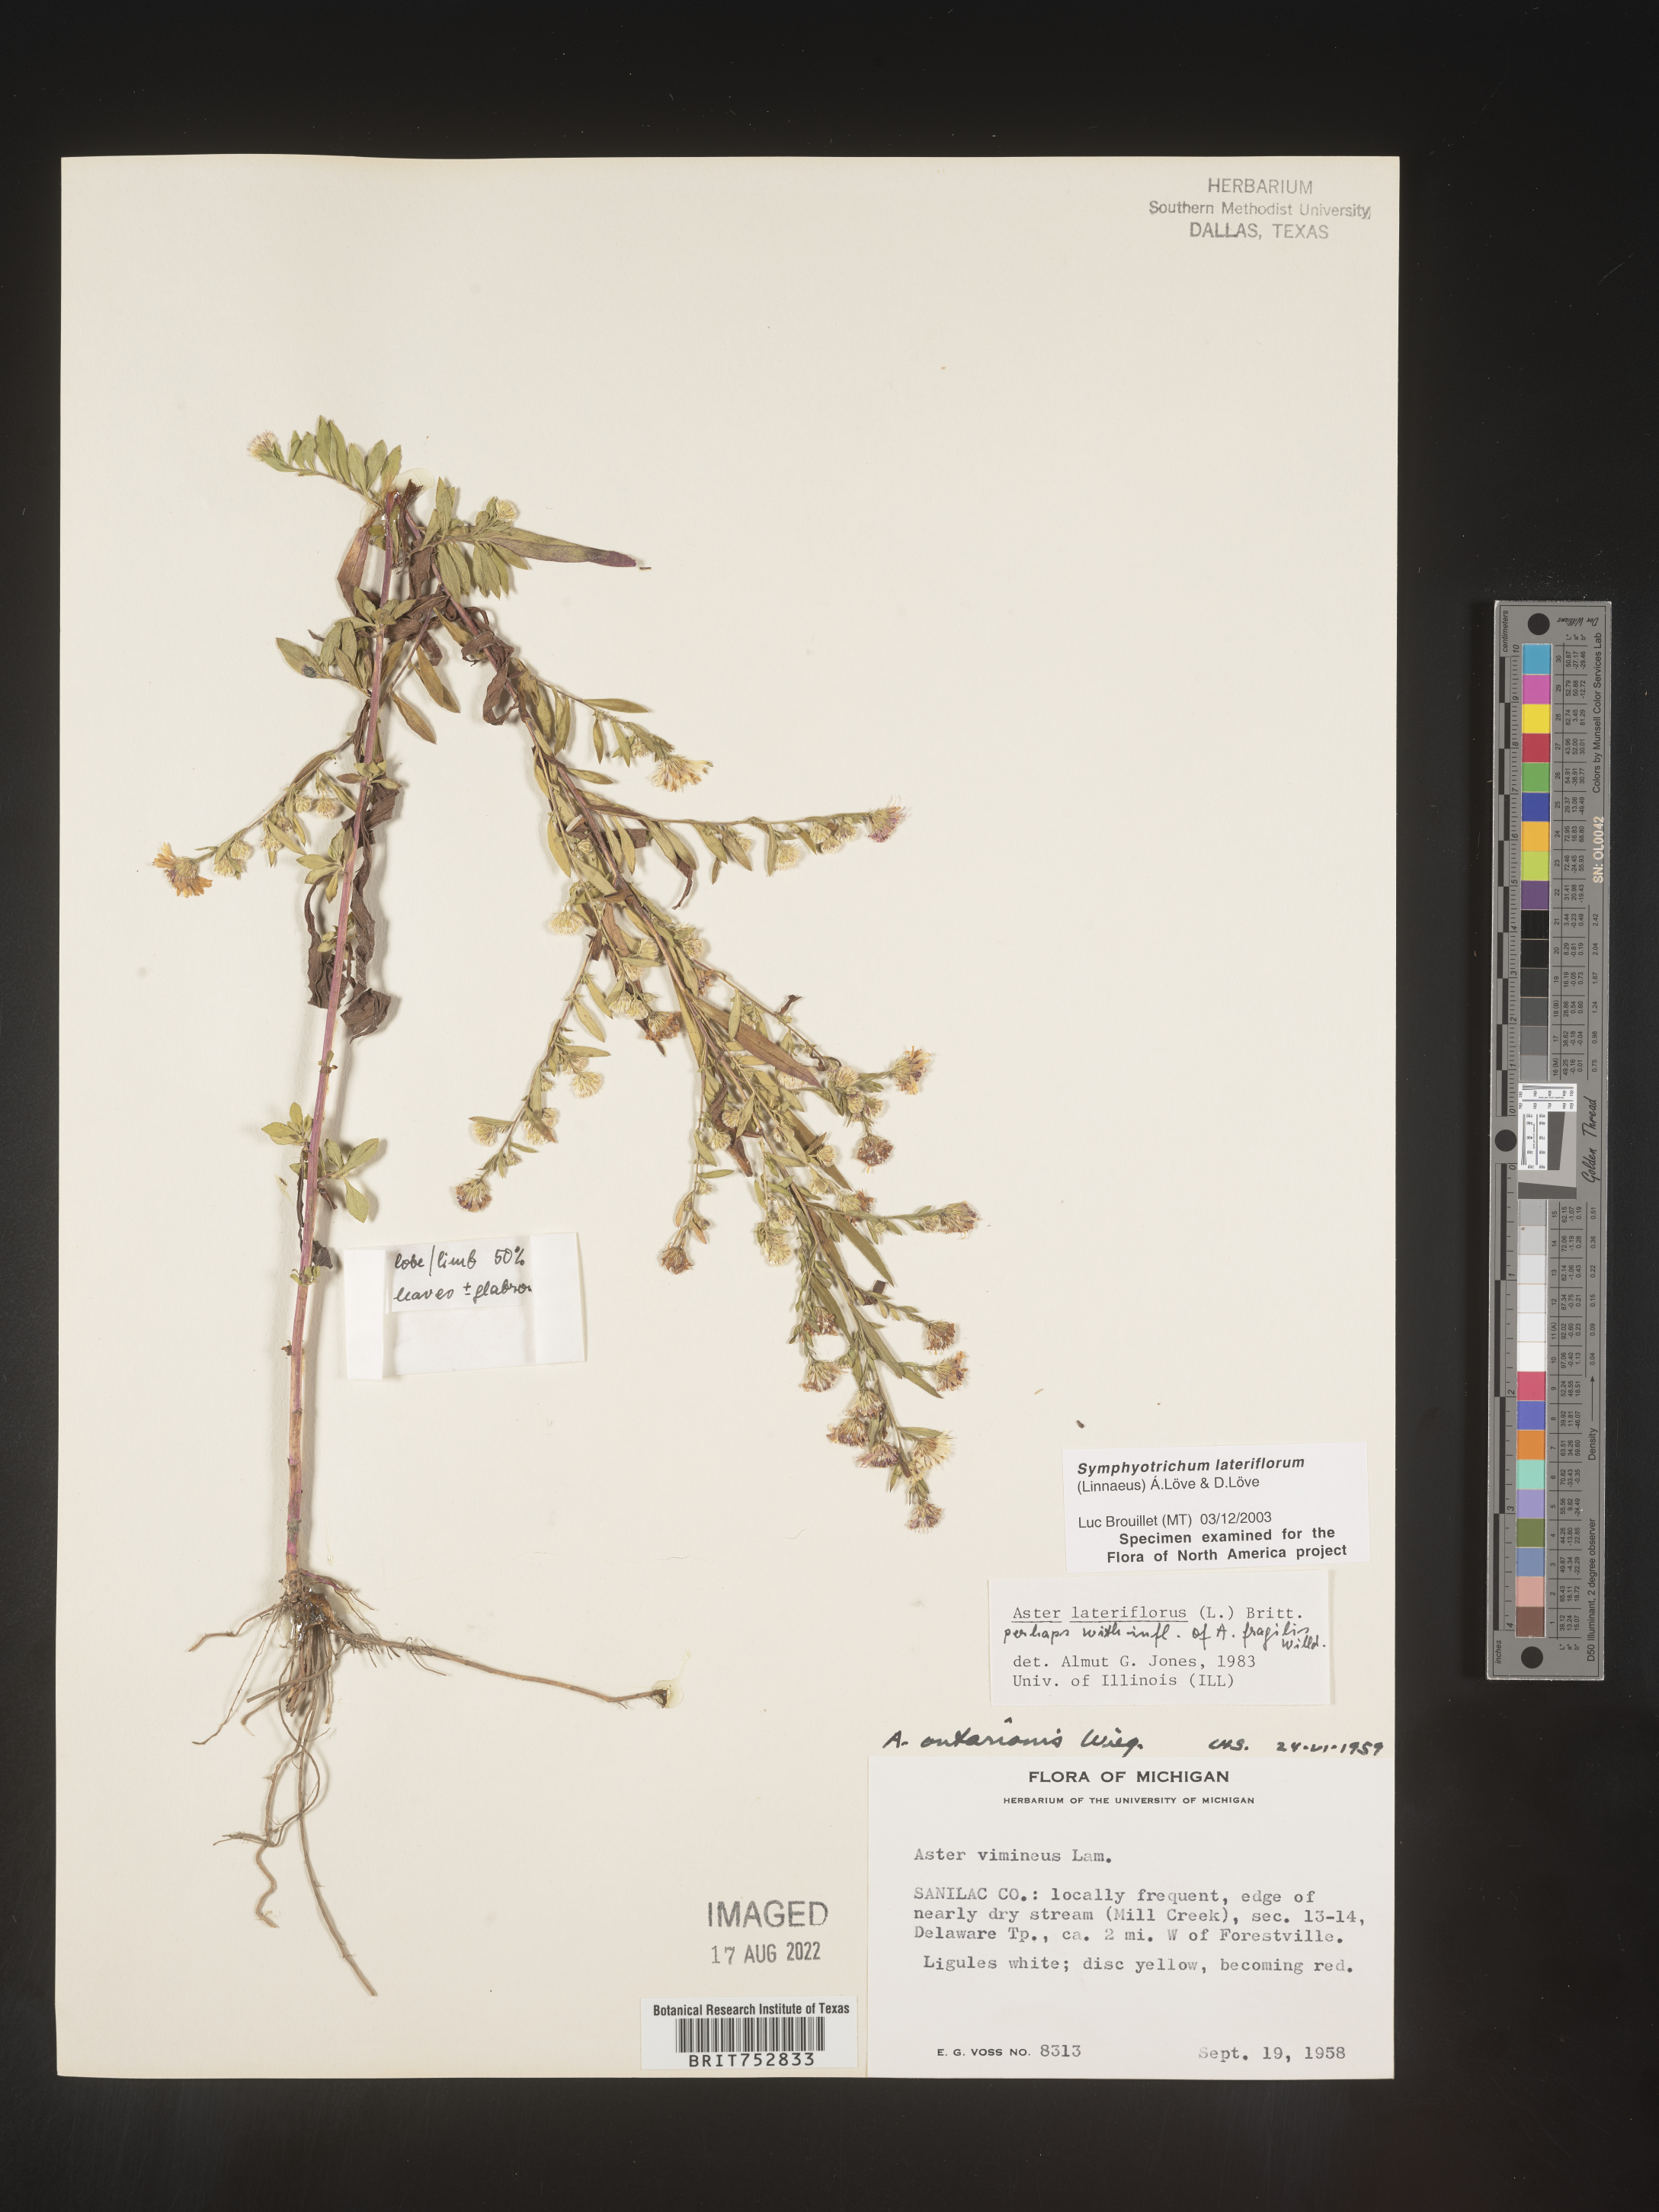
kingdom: Plantae
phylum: Tracheophyta
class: Magnoliopsida
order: Asterales
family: Asteraceae
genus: Symphyotrichum
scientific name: Symphyotrichum lateriflorum
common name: Calico aster
